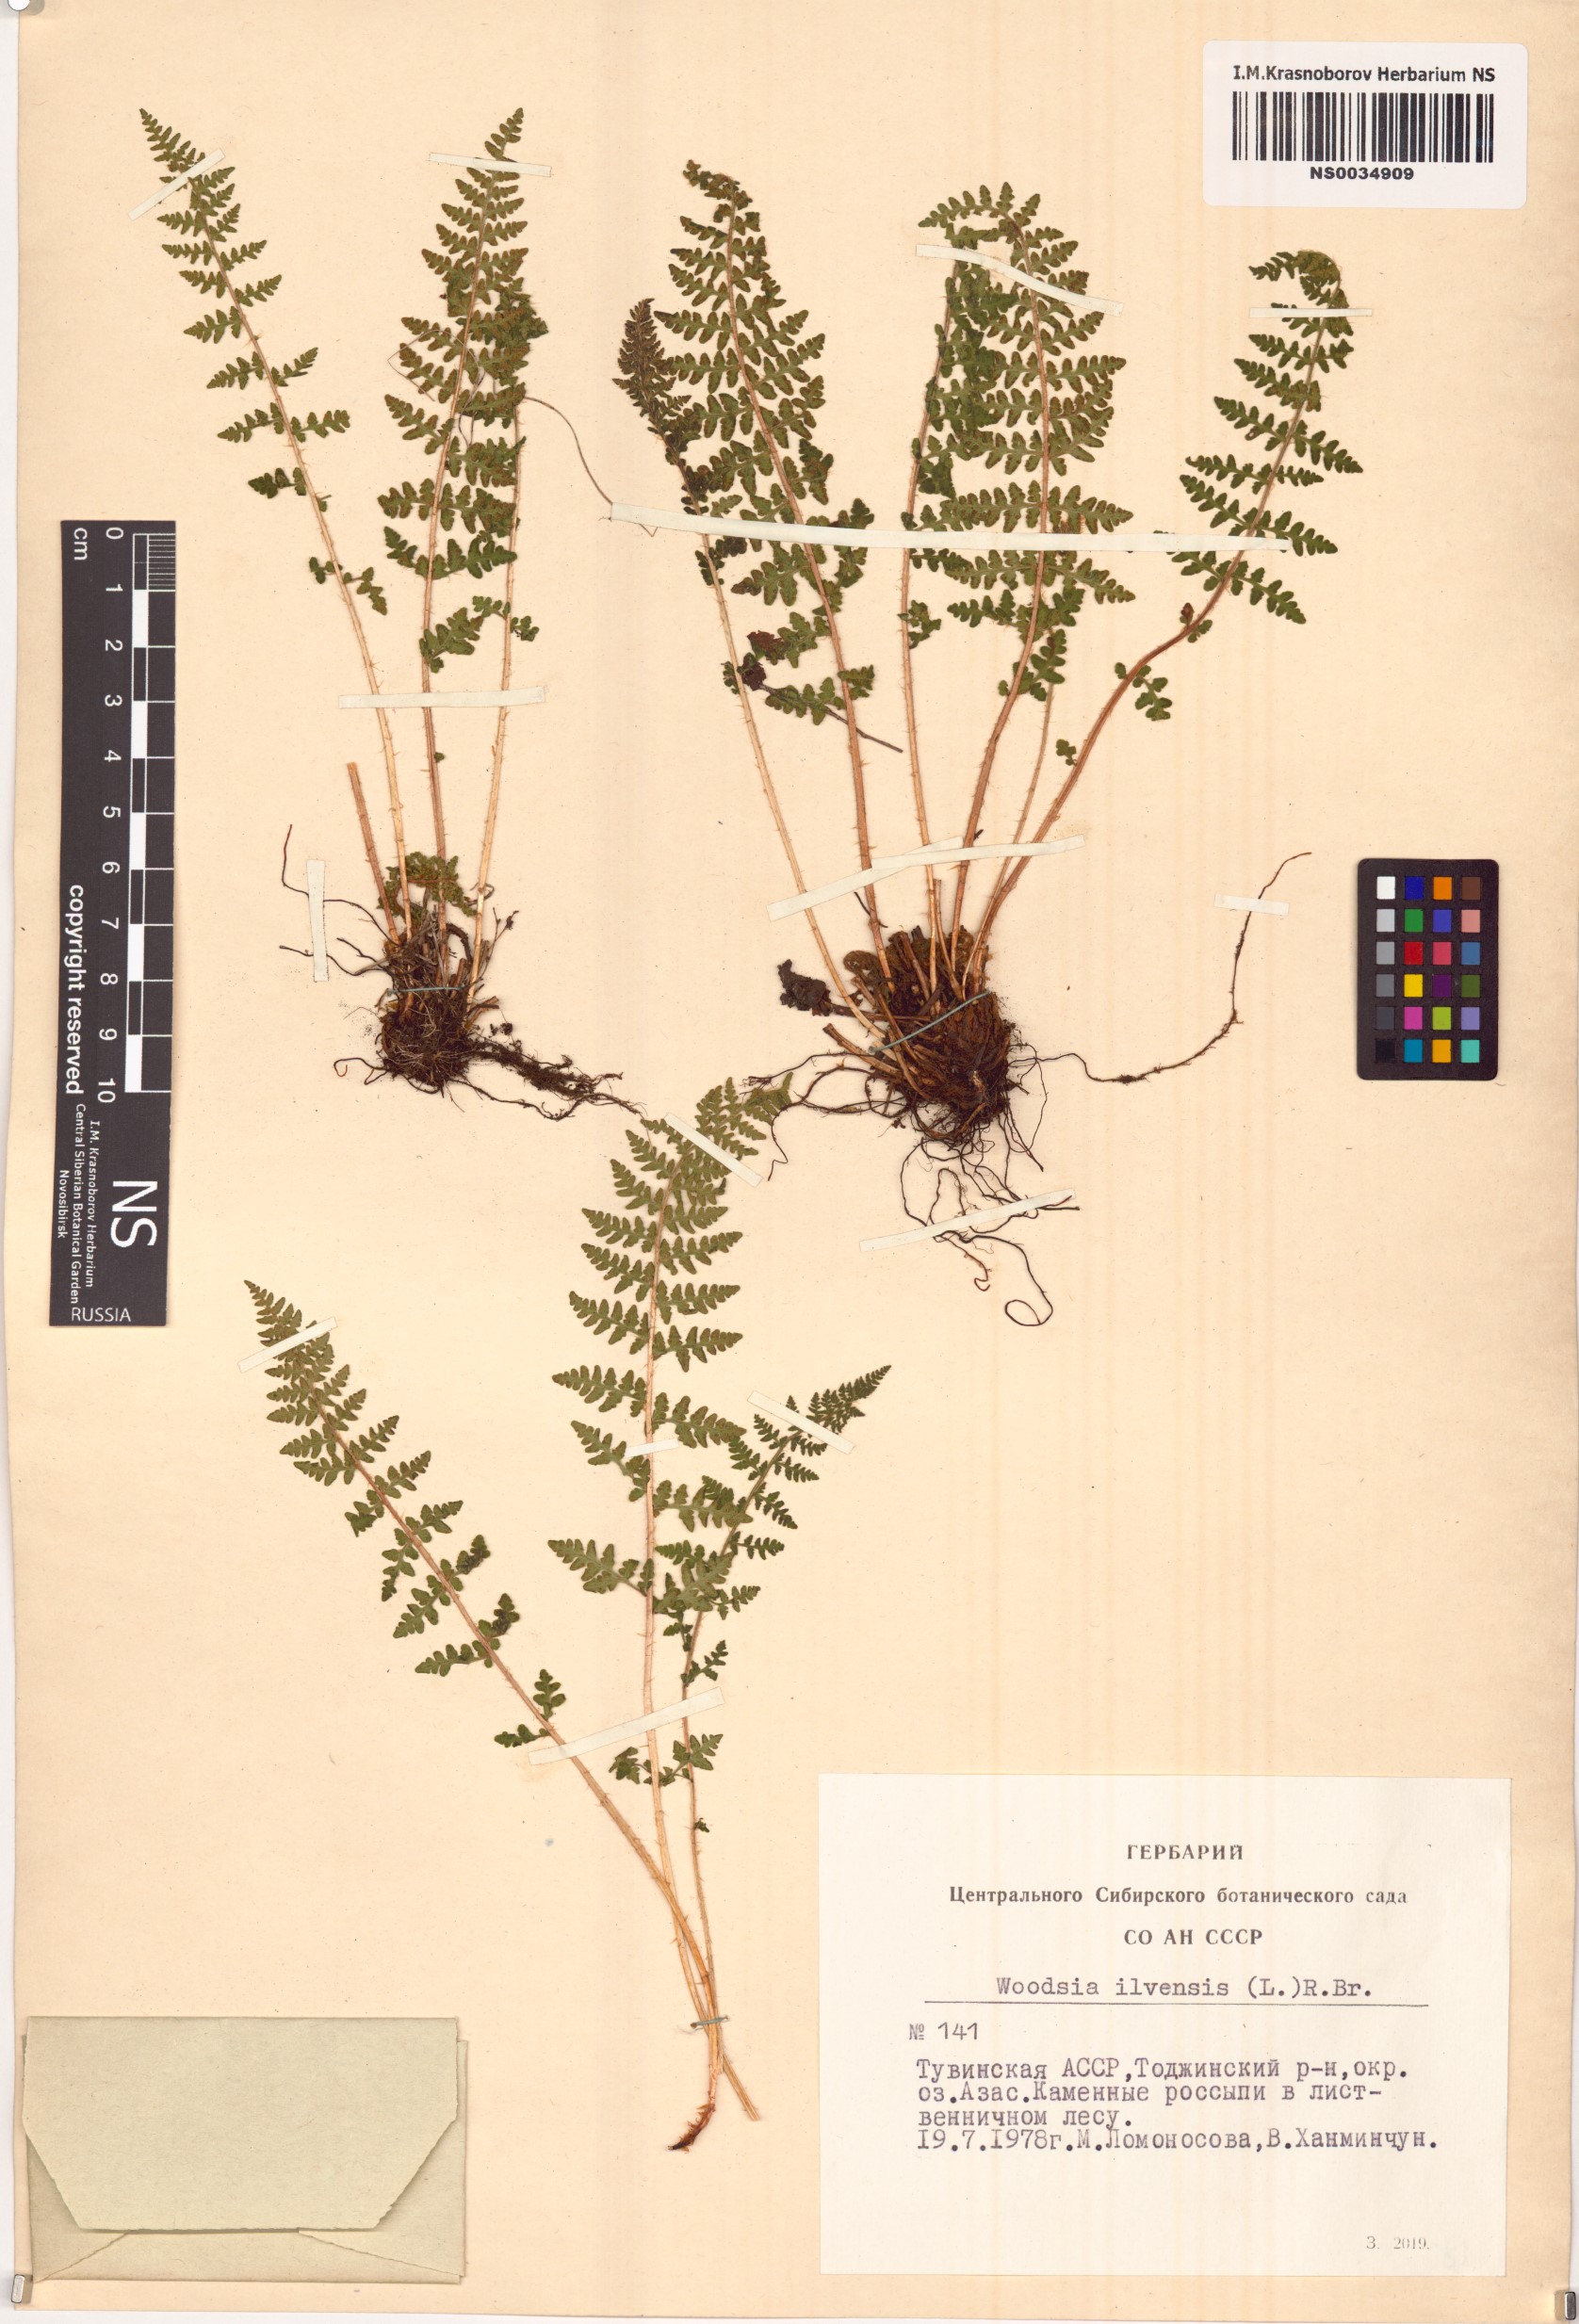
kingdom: Plantae
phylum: Tracheophyta
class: Polypodiopsida
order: Polypodiales
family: Woodsiaceae
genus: Woodsia
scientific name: Woodsia ilvensis
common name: Fragrant woodsia
